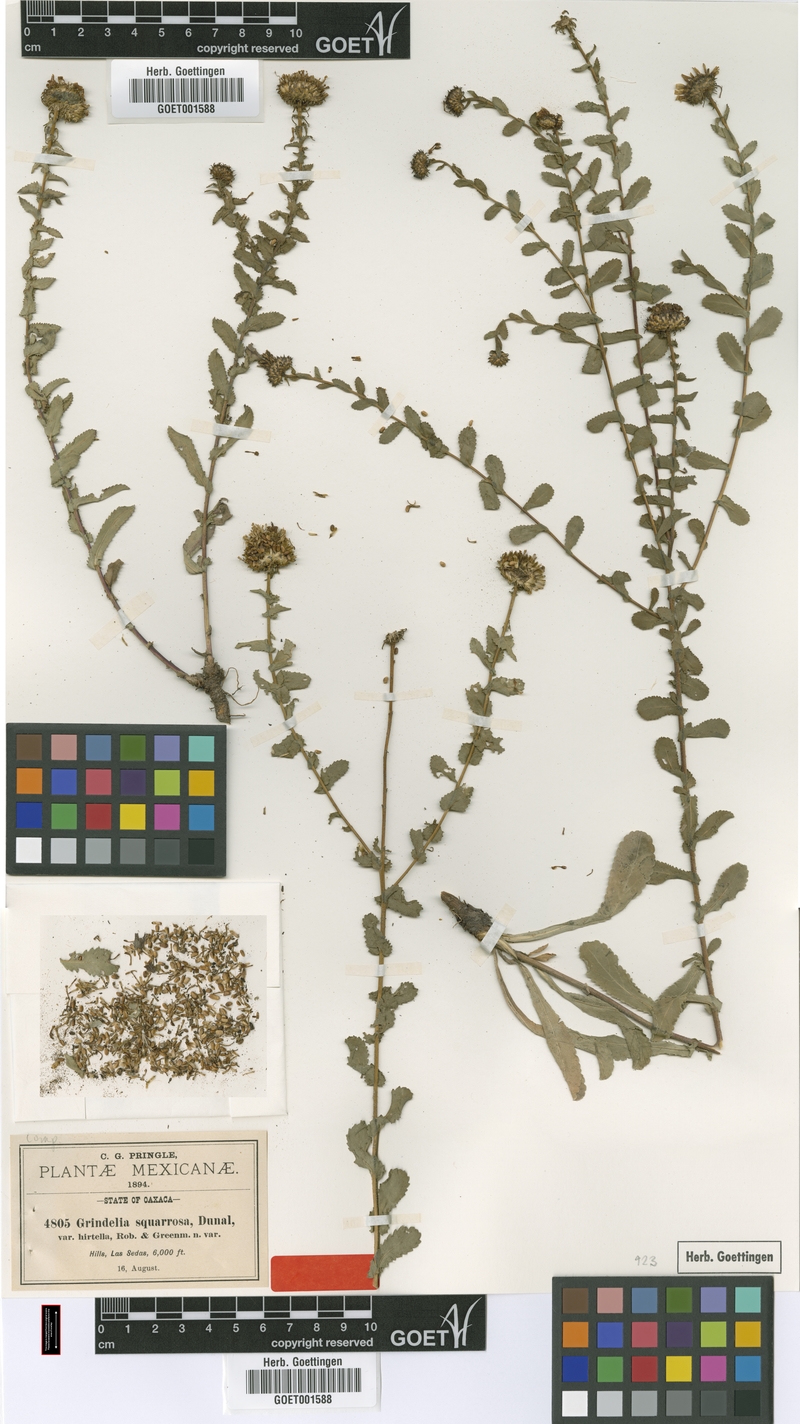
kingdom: Plantae
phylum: Tracheophyta
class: Magnoliopsida
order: Asterales
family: Asteraceae
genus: Grindelia
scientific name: Grindelia hirtella
